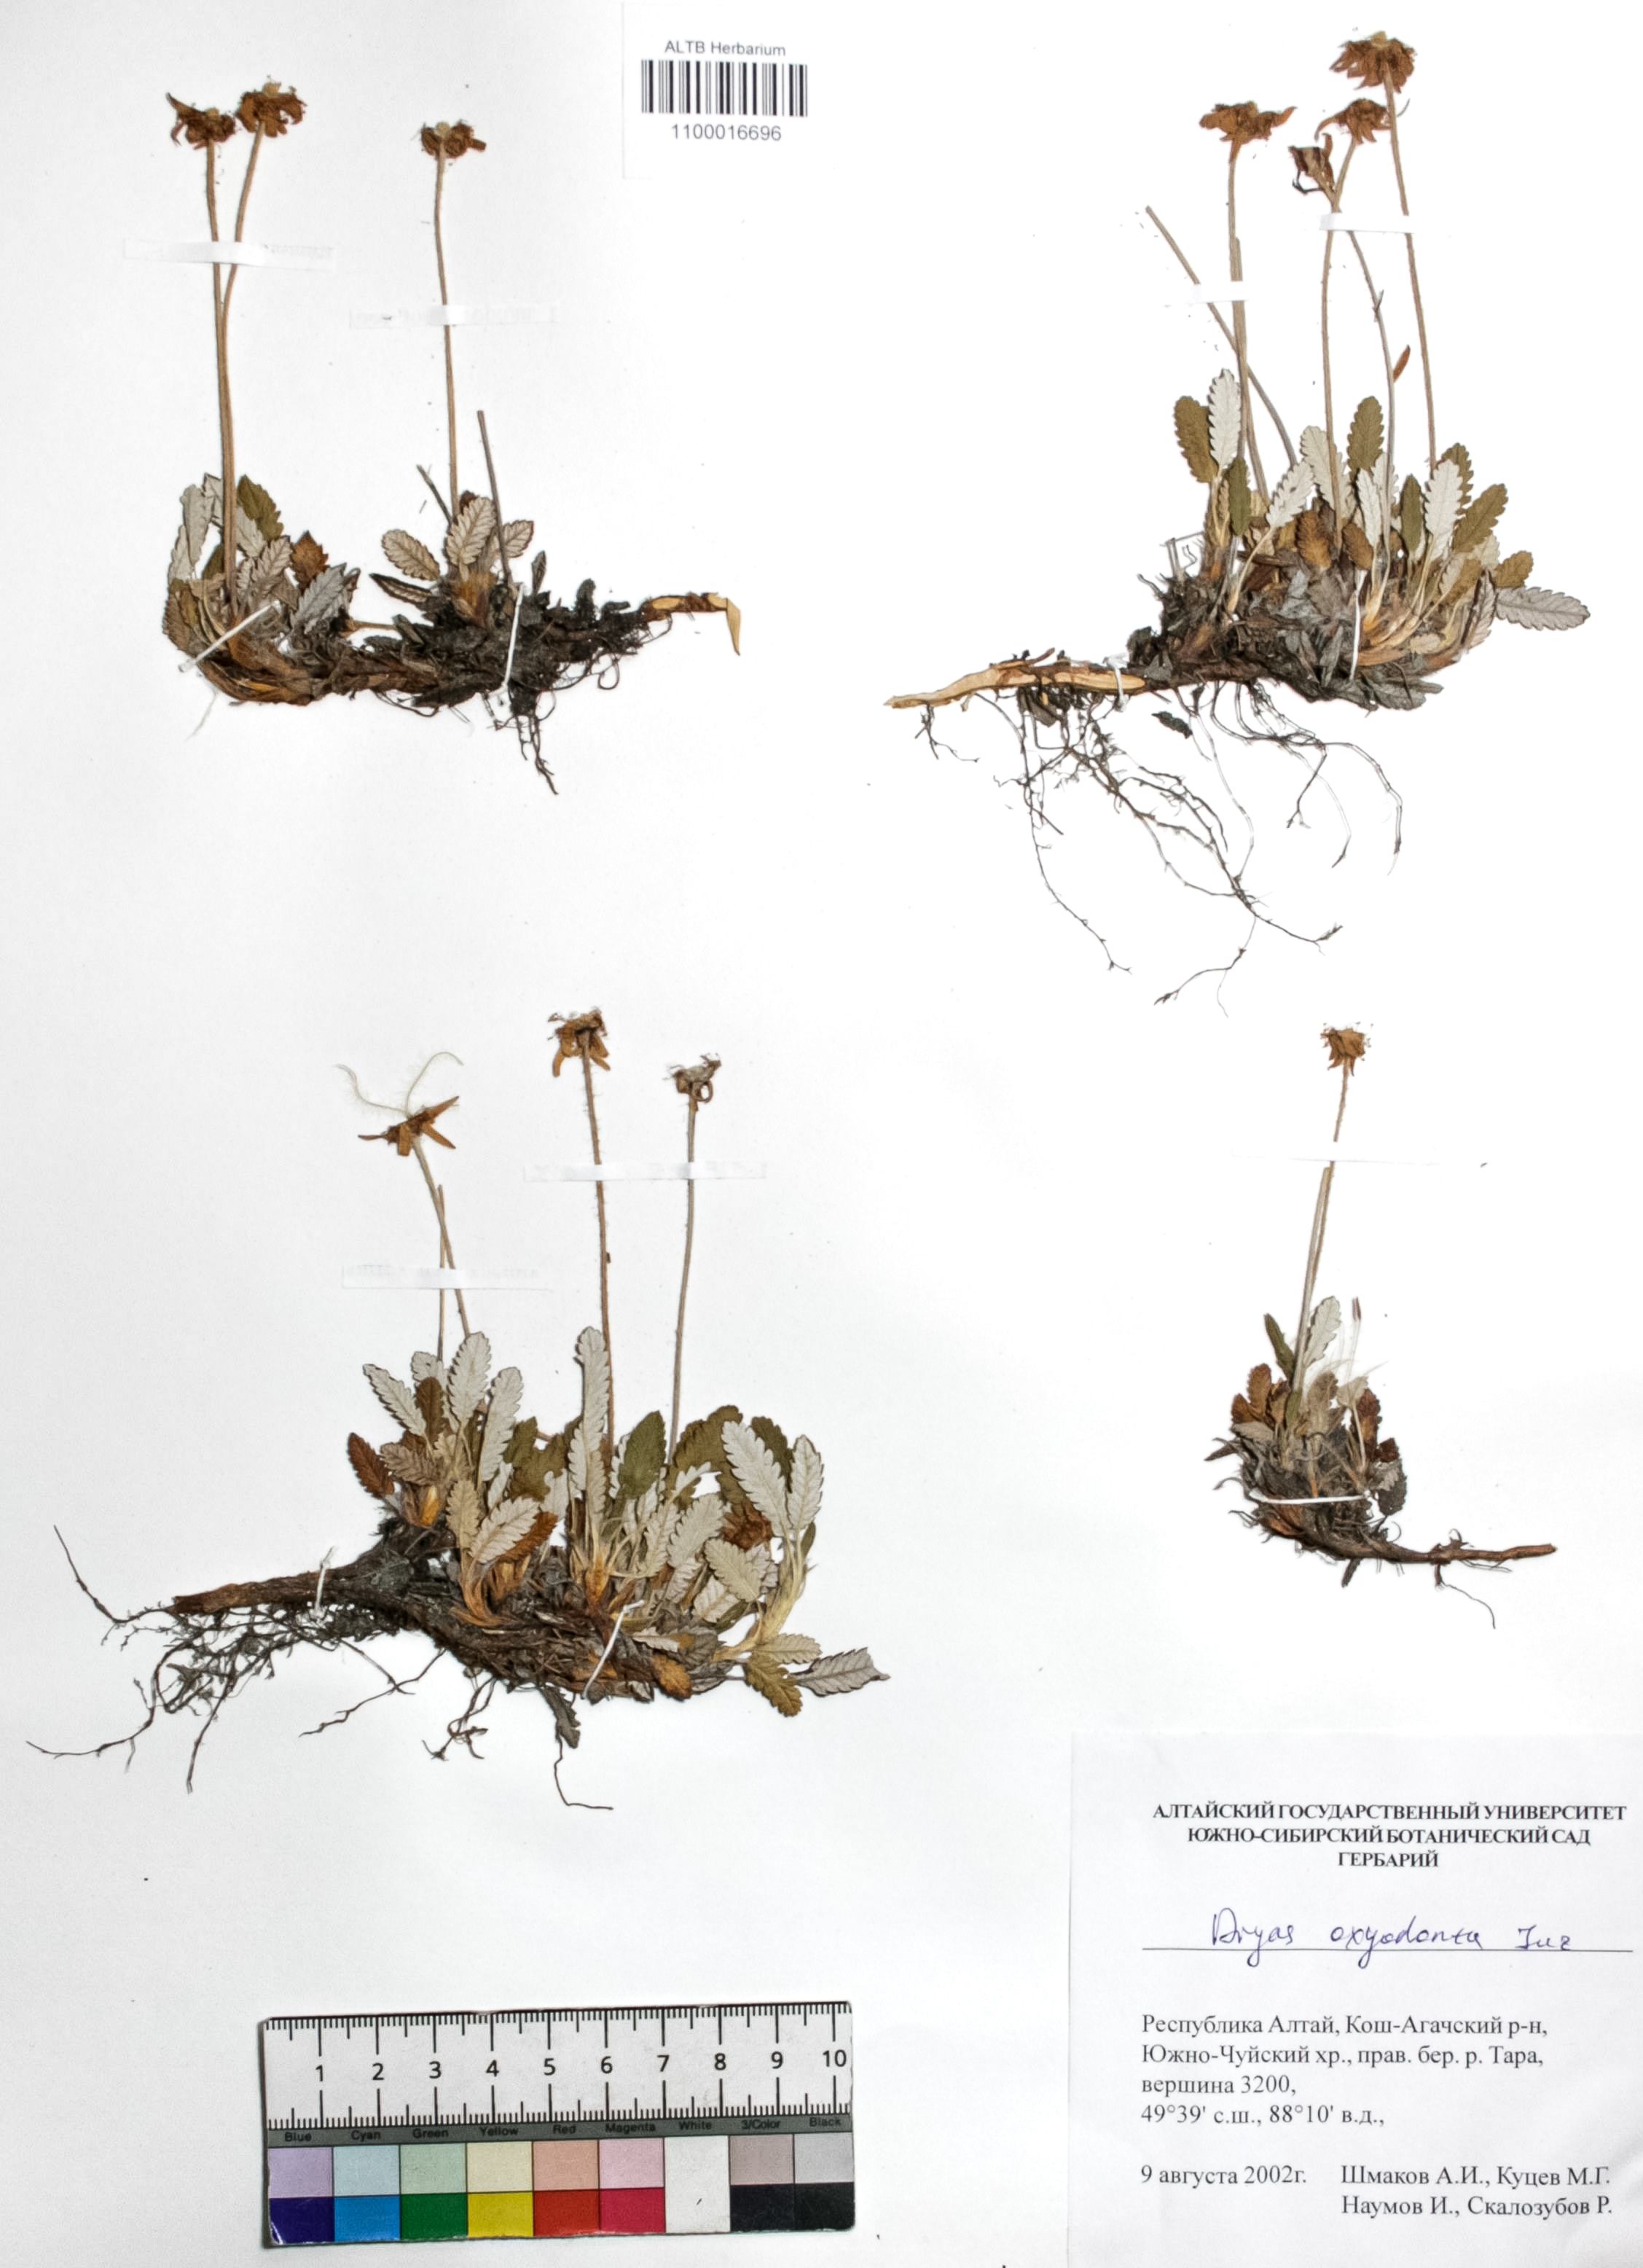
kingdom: Plantae
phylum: Tracheophyta
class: Magnoliopsida
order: Rosales
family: Rosaceae
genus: Dryas
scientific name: Dryas octopetala
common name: Eight-petal mountain-avens
